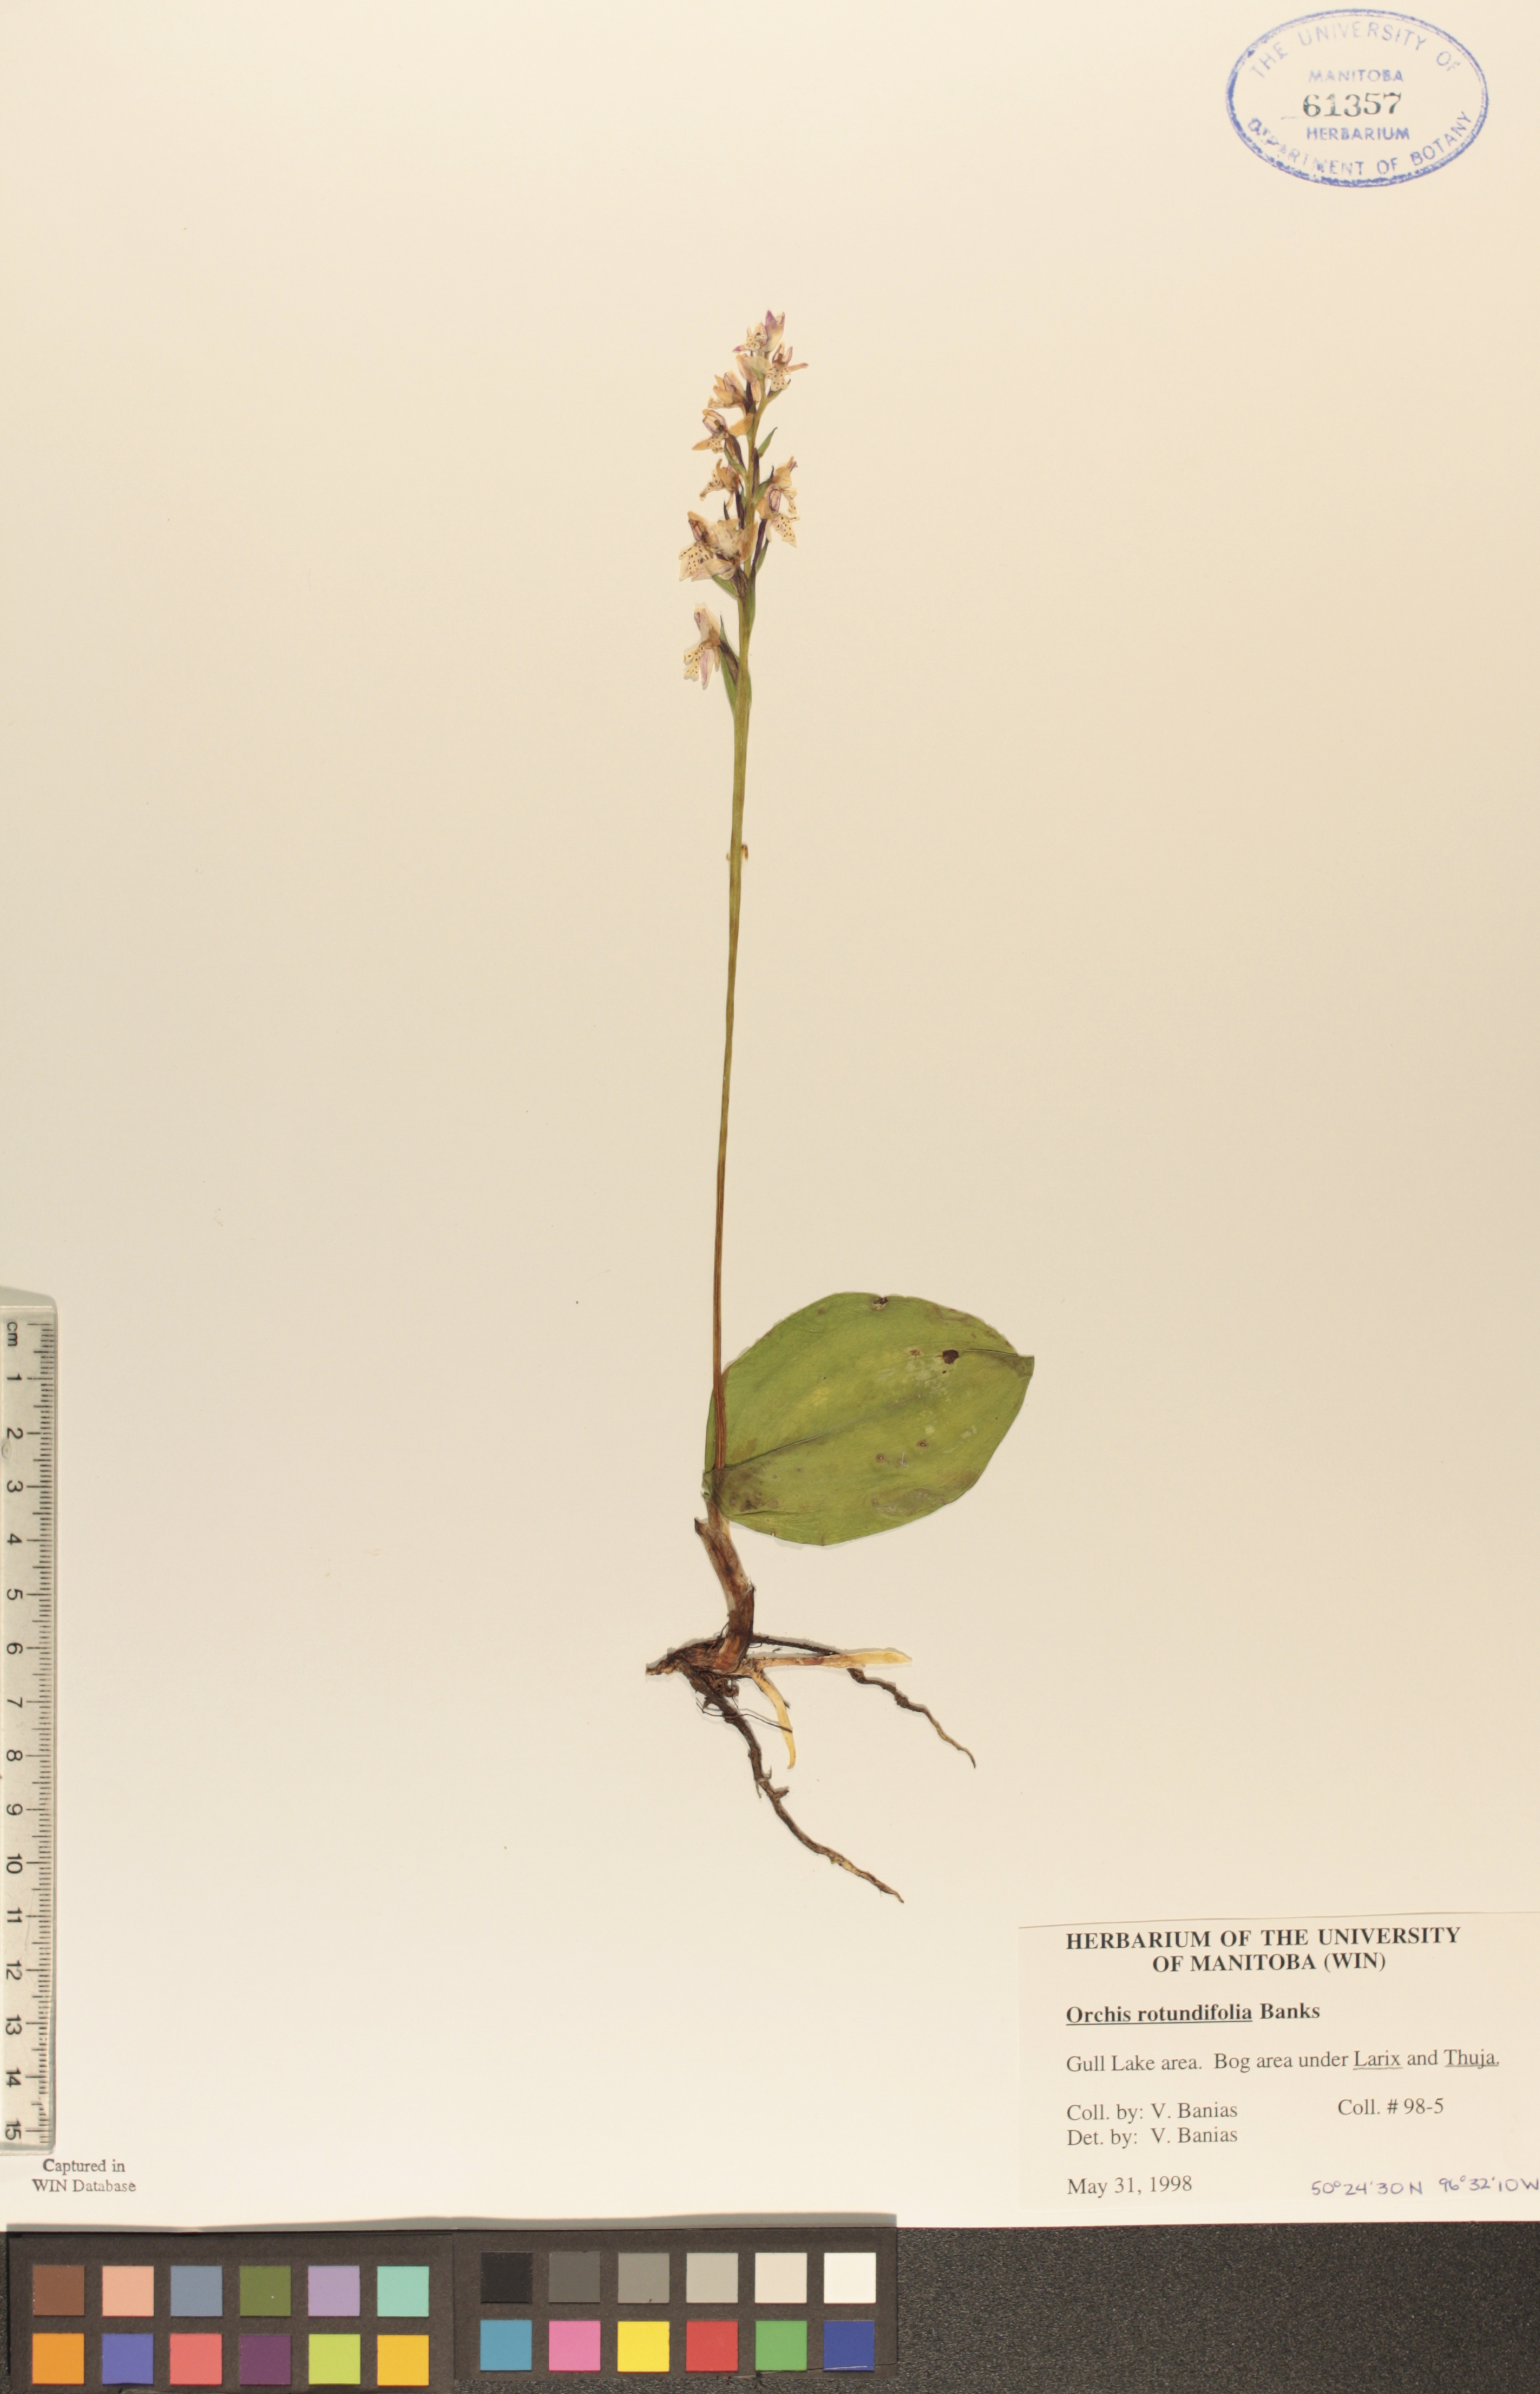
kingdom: Plantae
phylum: Tracheophyta
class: Liliopsida
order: Asparagales
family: Orchidaceae
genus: Galearis
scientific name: Galearis rotundifolia
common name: One-leaved orchis
